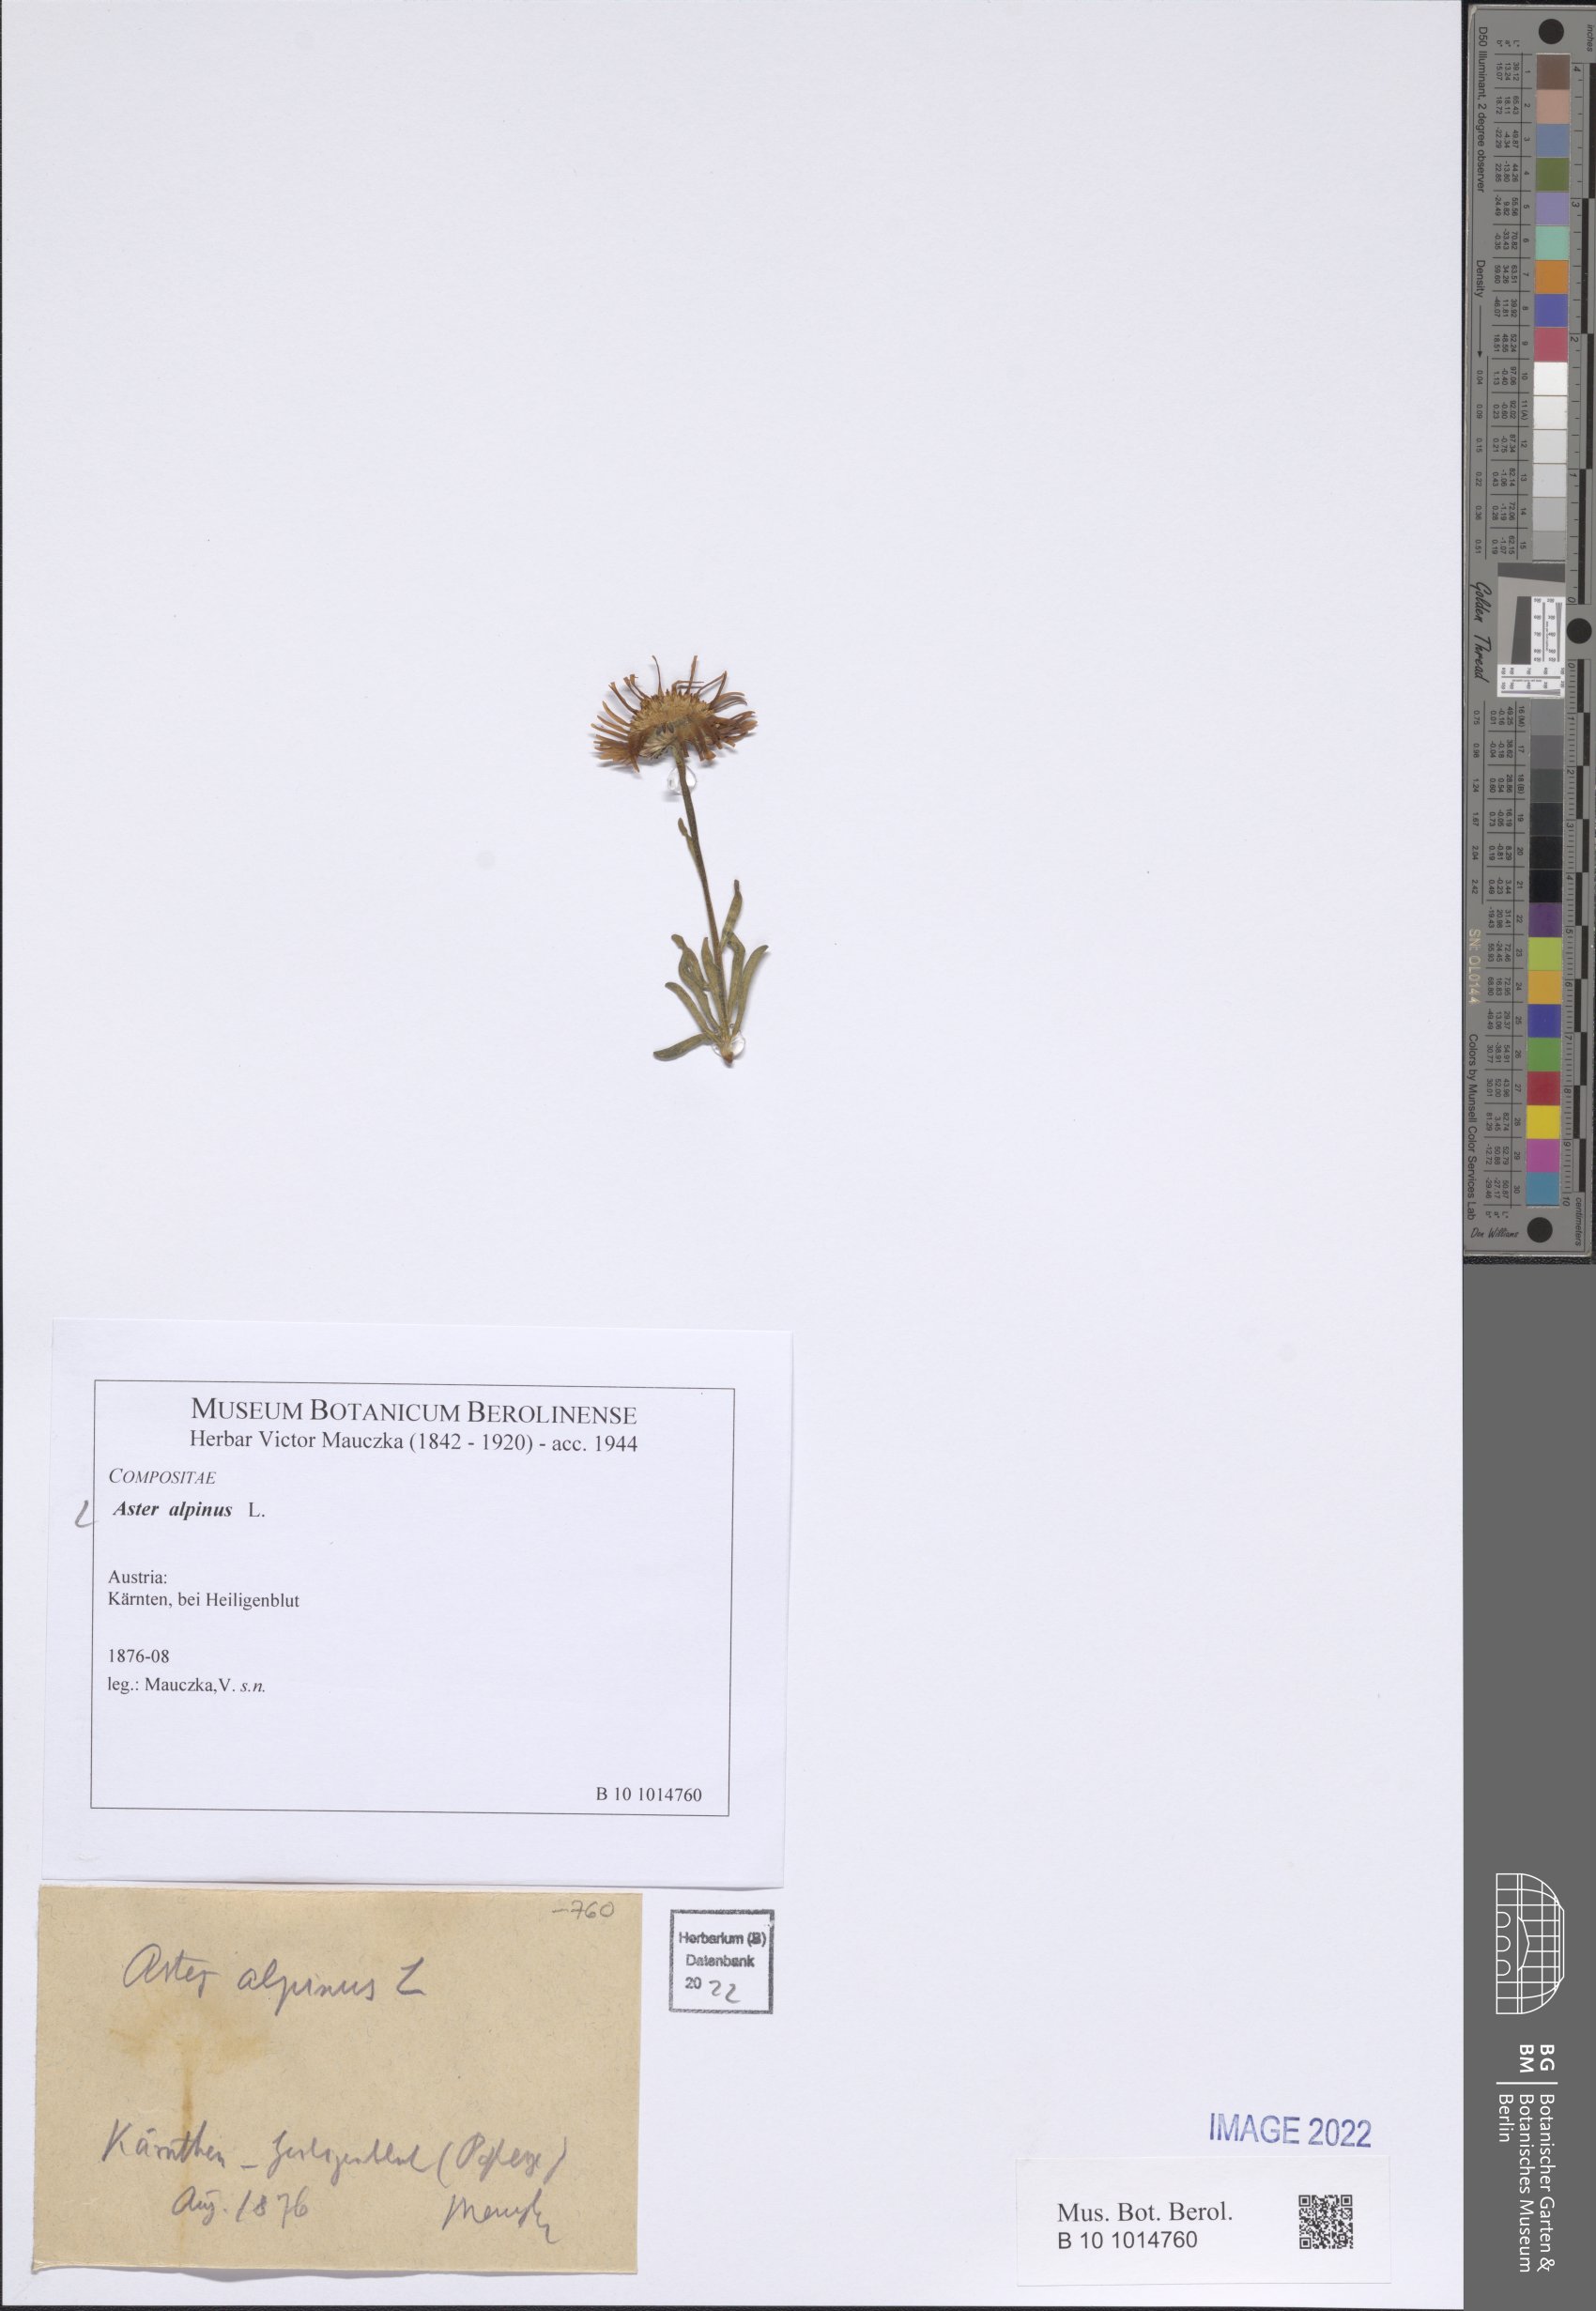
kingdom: Plantae
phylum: Tracheophyta
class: Magnoliopsida
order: Asterales
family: Asteraceae
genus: Aster
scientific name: Aster alpinus
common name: Alpine aster
